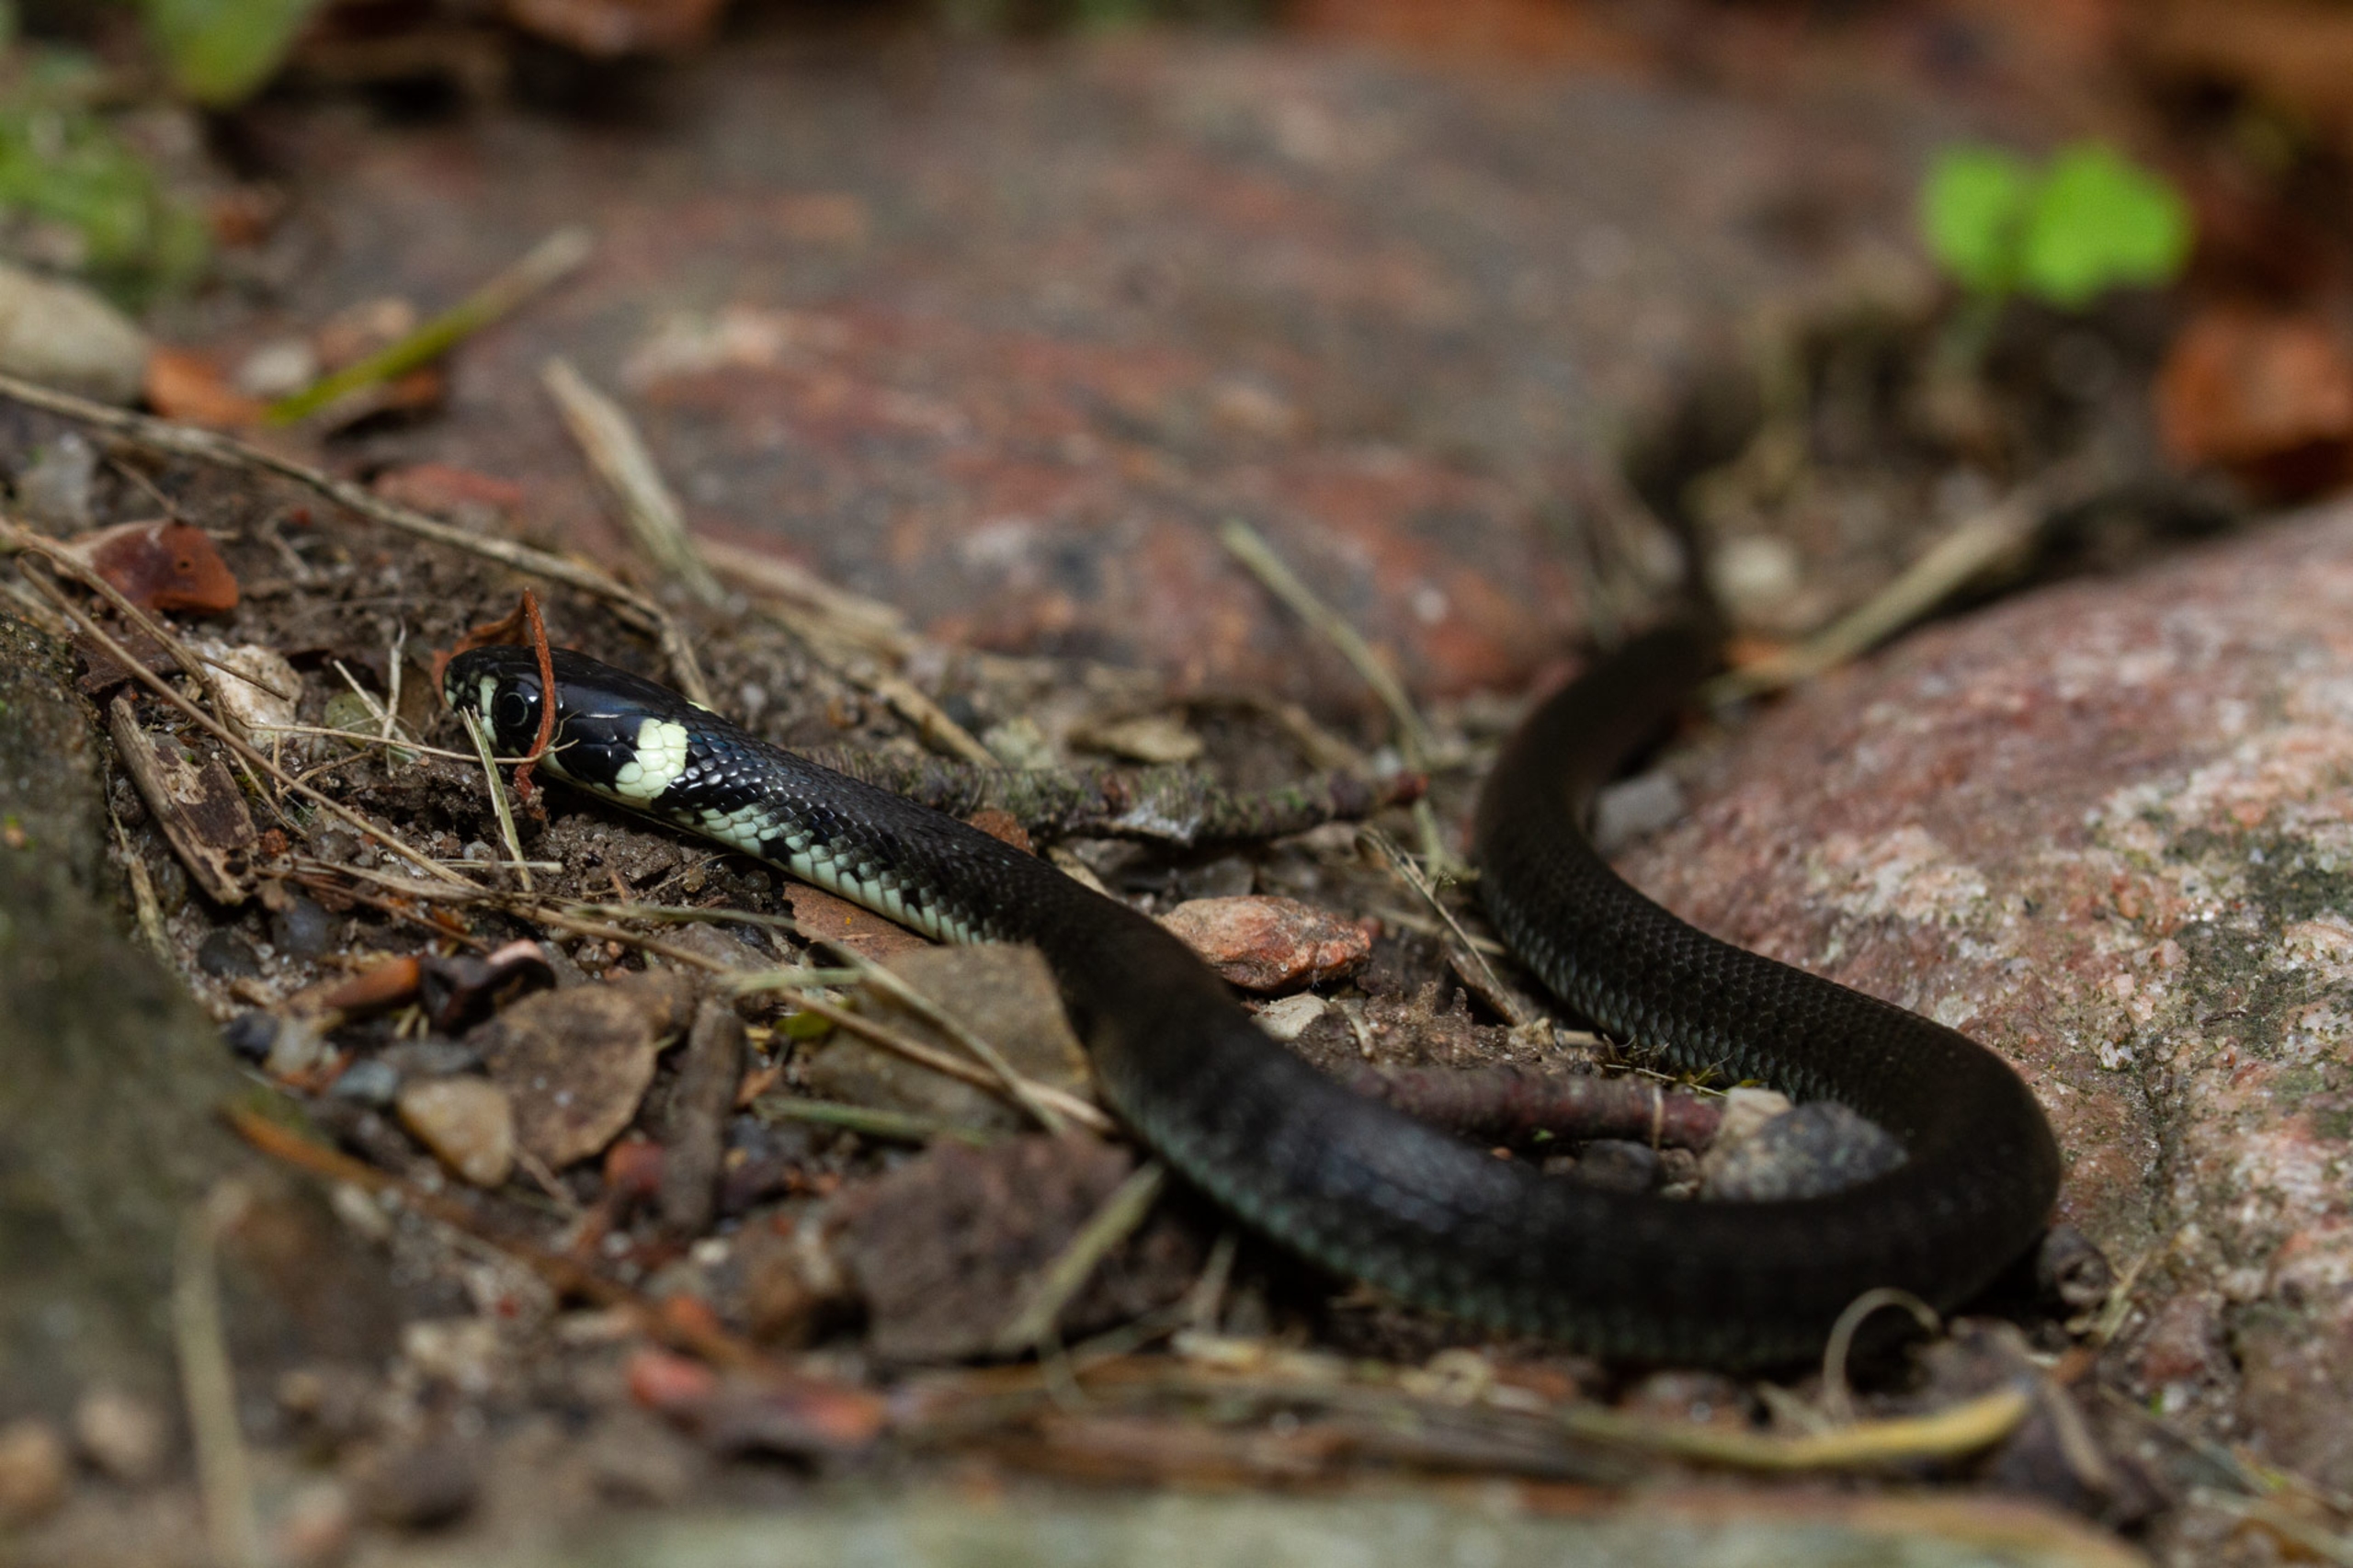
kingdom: Animalia
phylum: Chordata
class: Squamata
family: Colubridae
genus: Natrix
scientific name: Natrix natrix
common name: Snog
